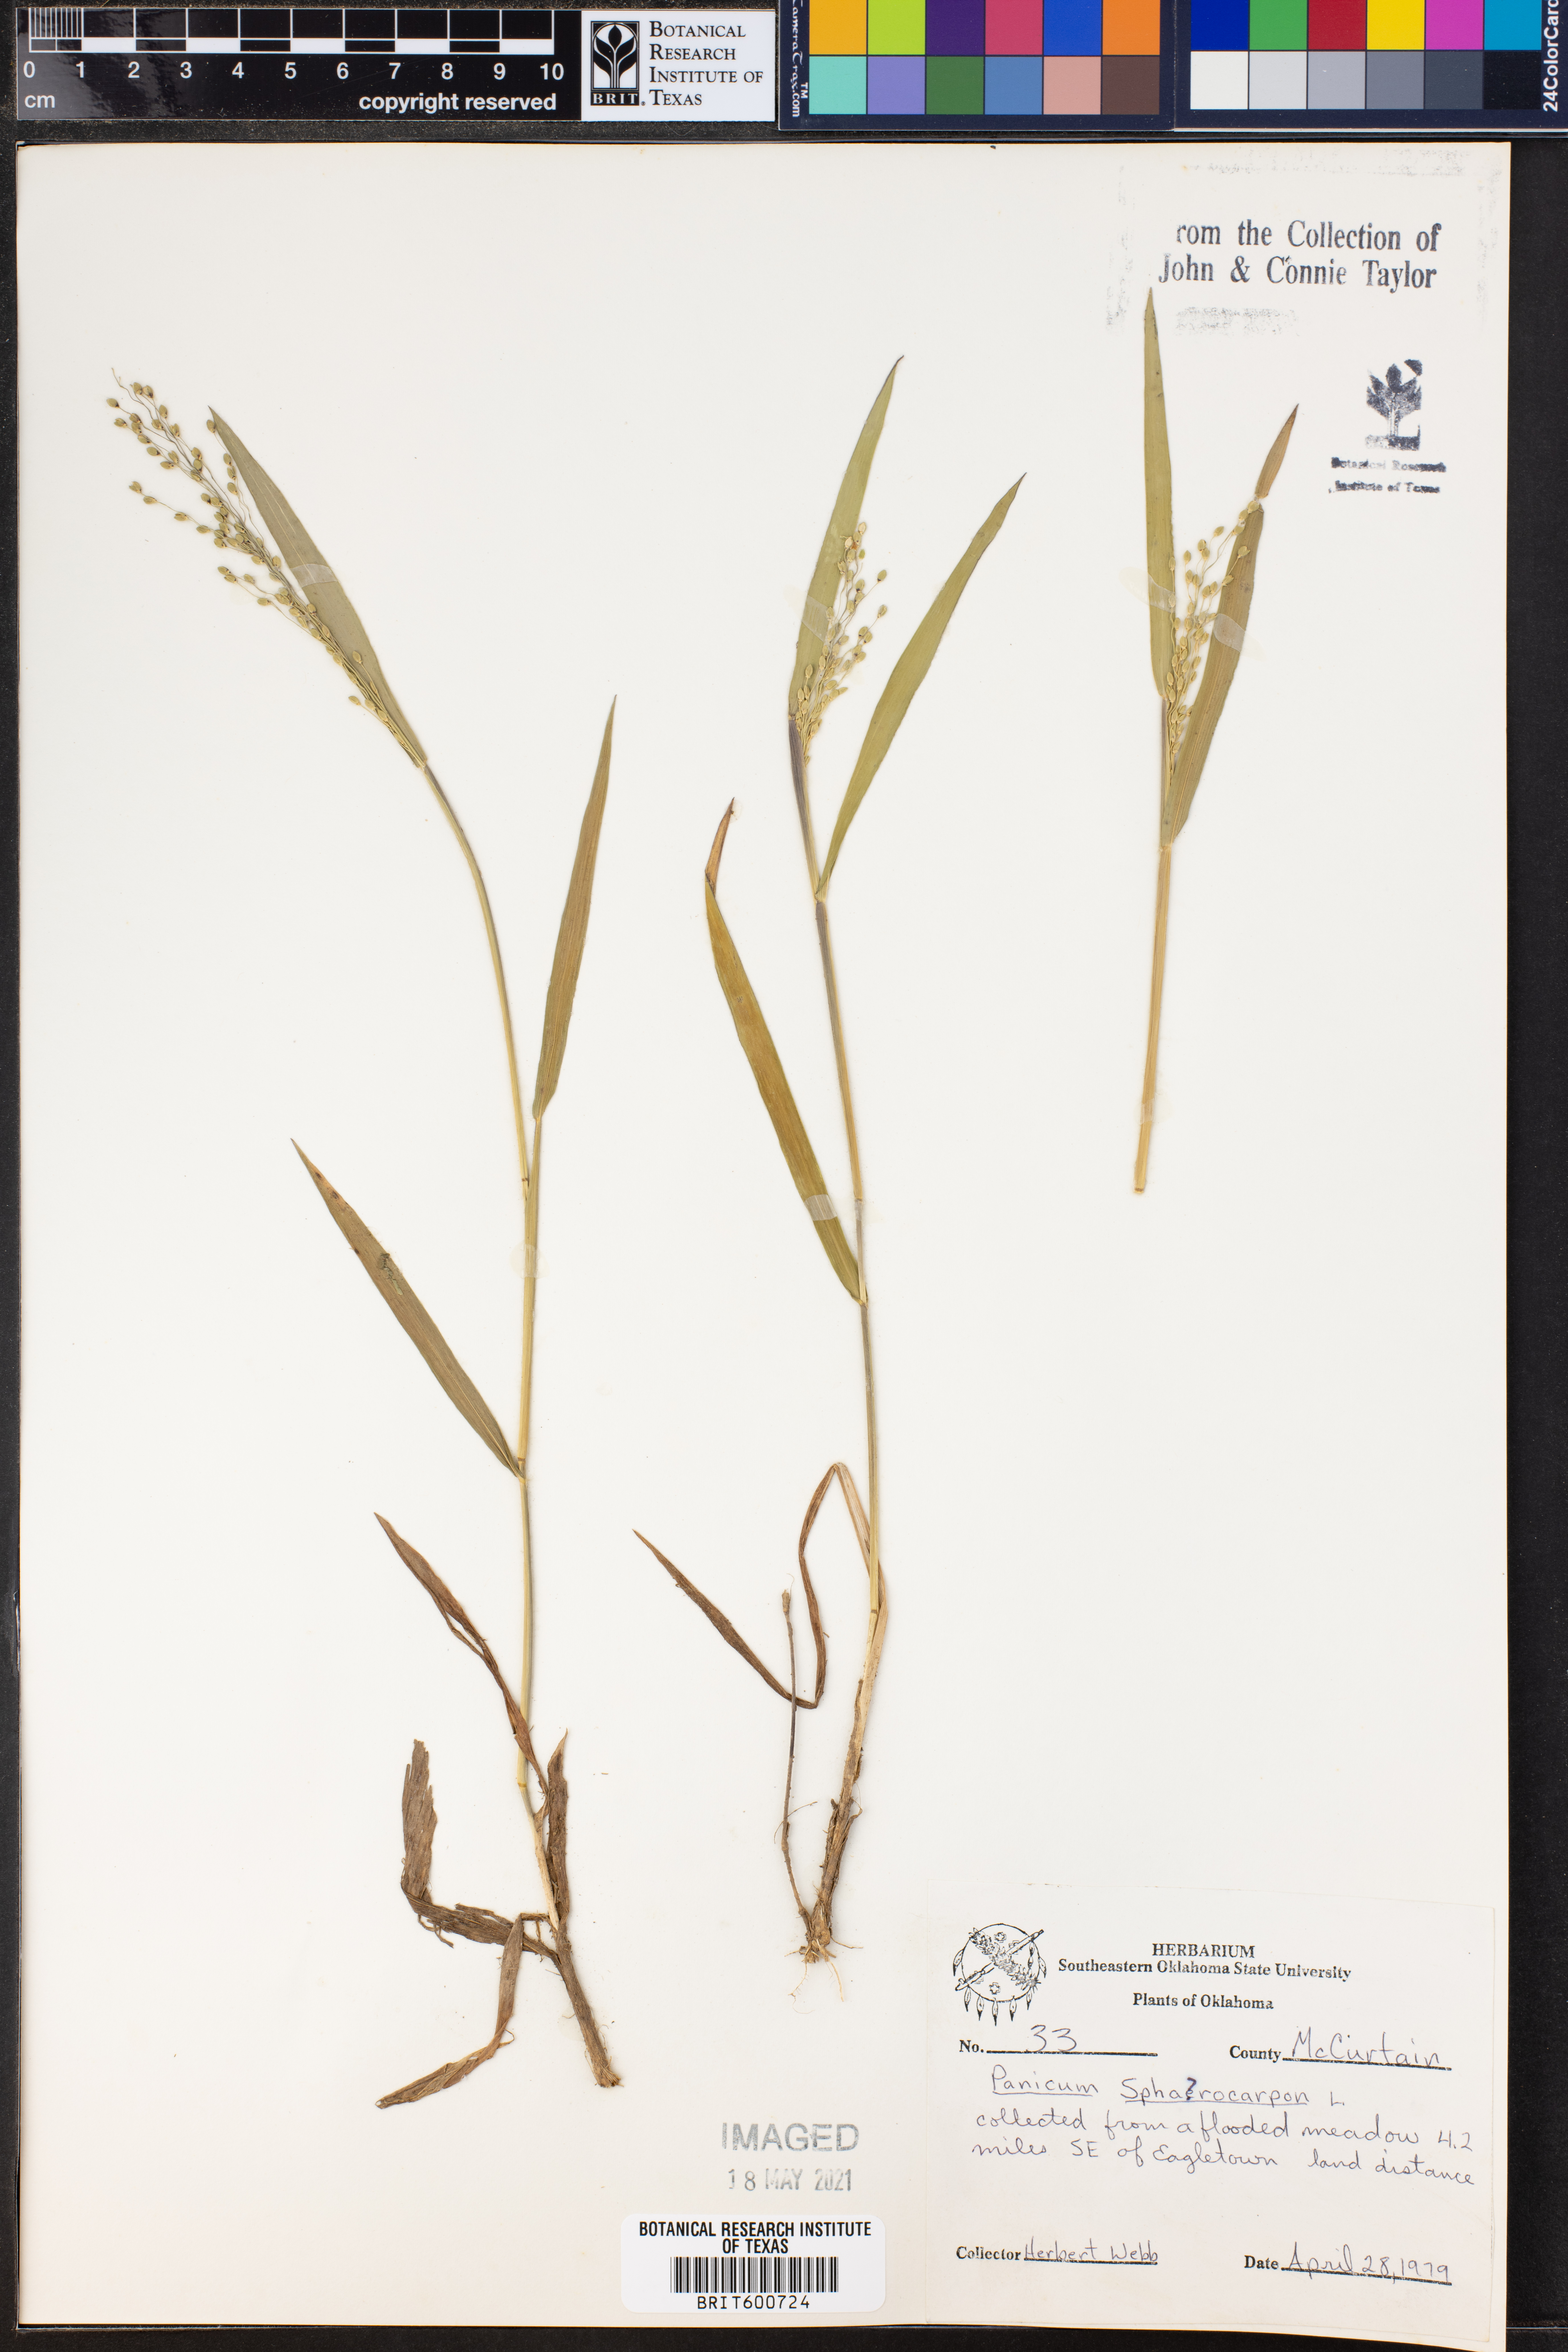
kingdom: Plantae
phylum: Tracheophyta
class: Liliopsida
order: Poales
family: Poaceae
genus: Dichanthelium
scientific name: Dichanthelium sphaerocarpon
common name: Round-fruited panicgrass
